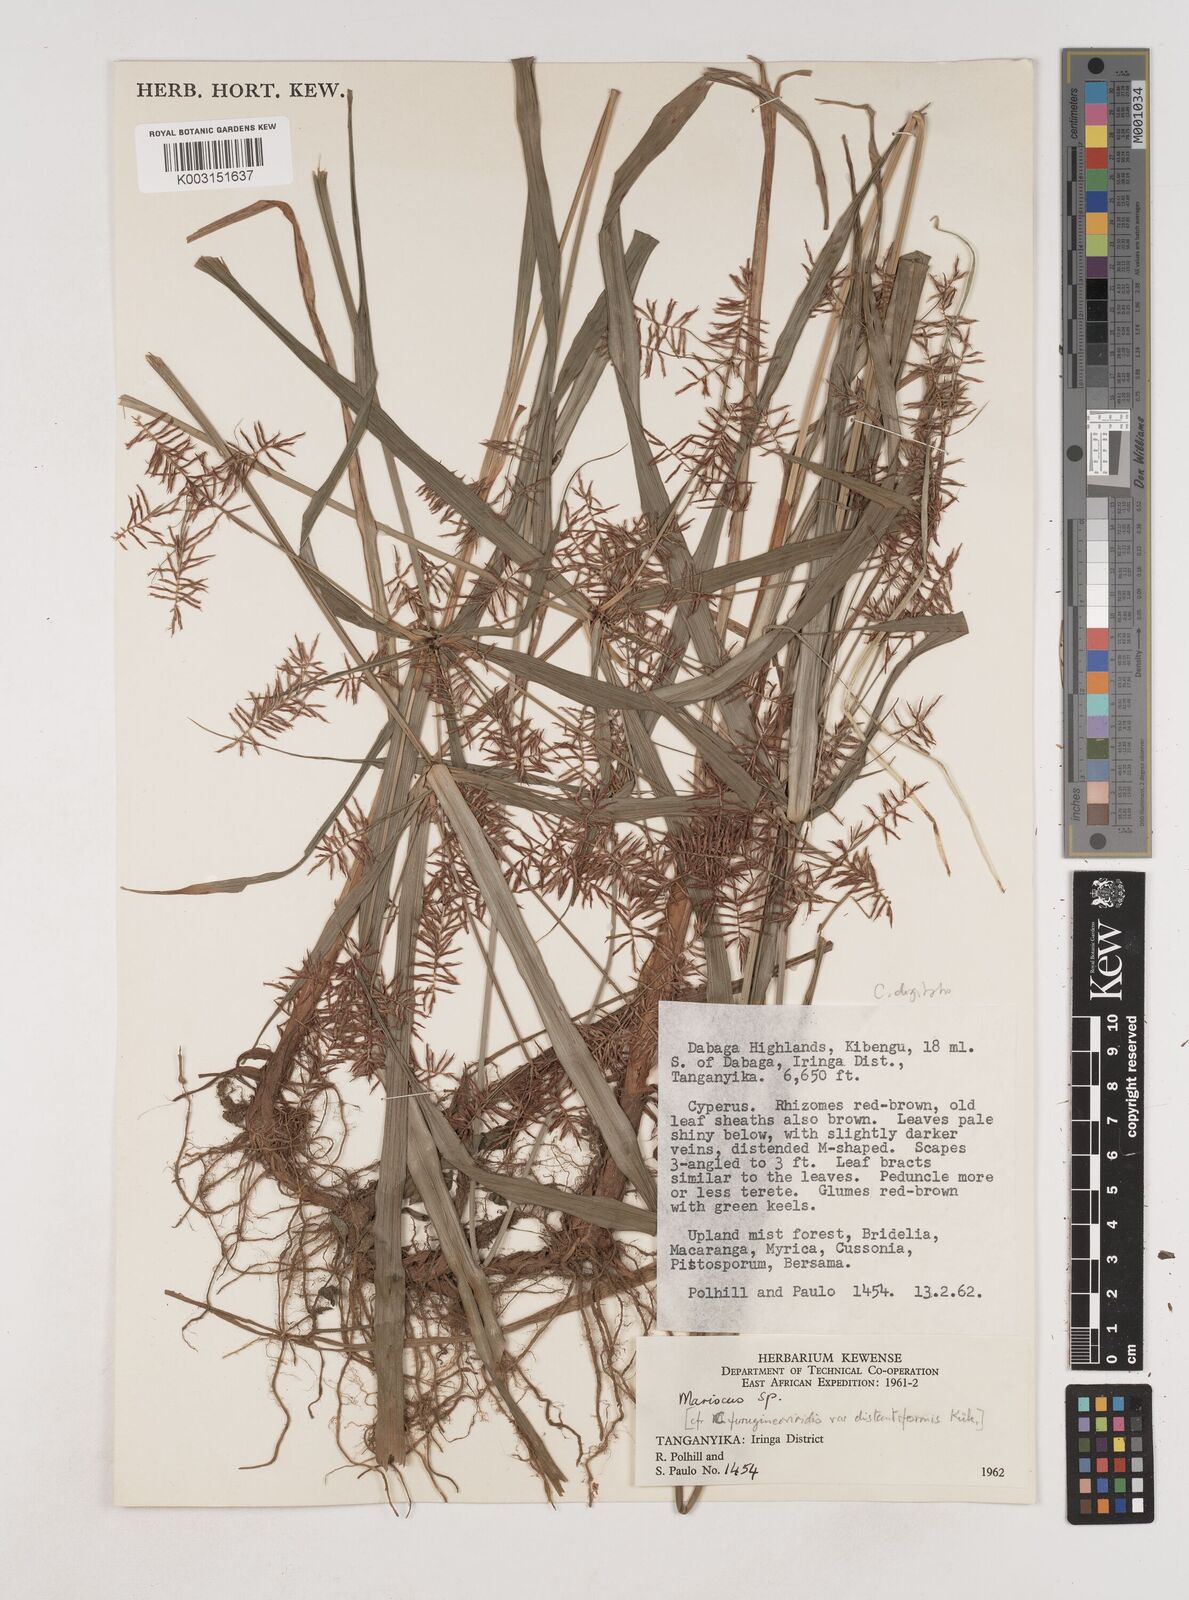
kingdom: Plantae
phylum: Tracheophyta
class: Liliopsida
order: Poales
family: Cyperaceae
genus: Cyperus
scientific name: Cyperus digitatus
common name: Finger flatsedge
